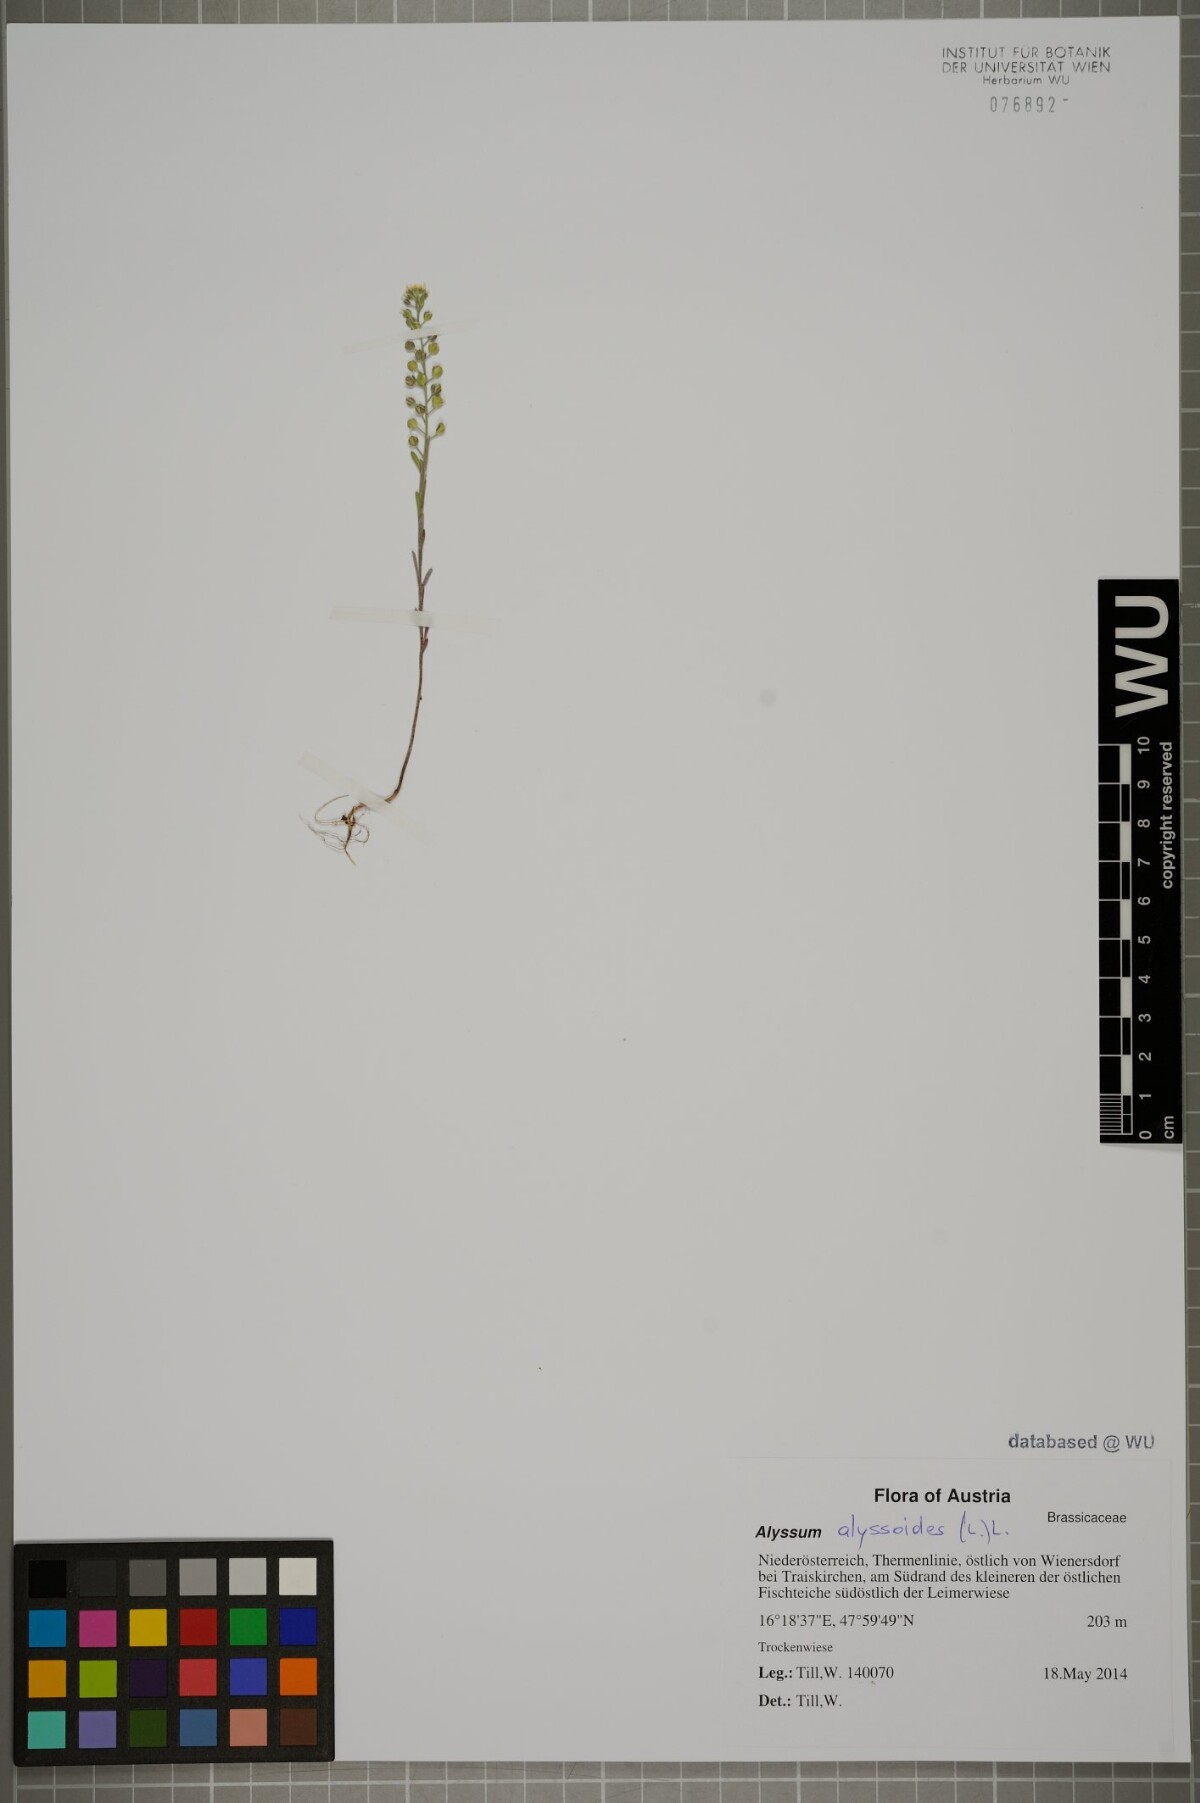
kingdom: Plantae
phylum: Tracheophyta
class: Magnoliopsida
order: Brassicales
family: Brassicaceae
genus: Alyssum
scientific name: Alyssum alyssoides
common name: Small alison
